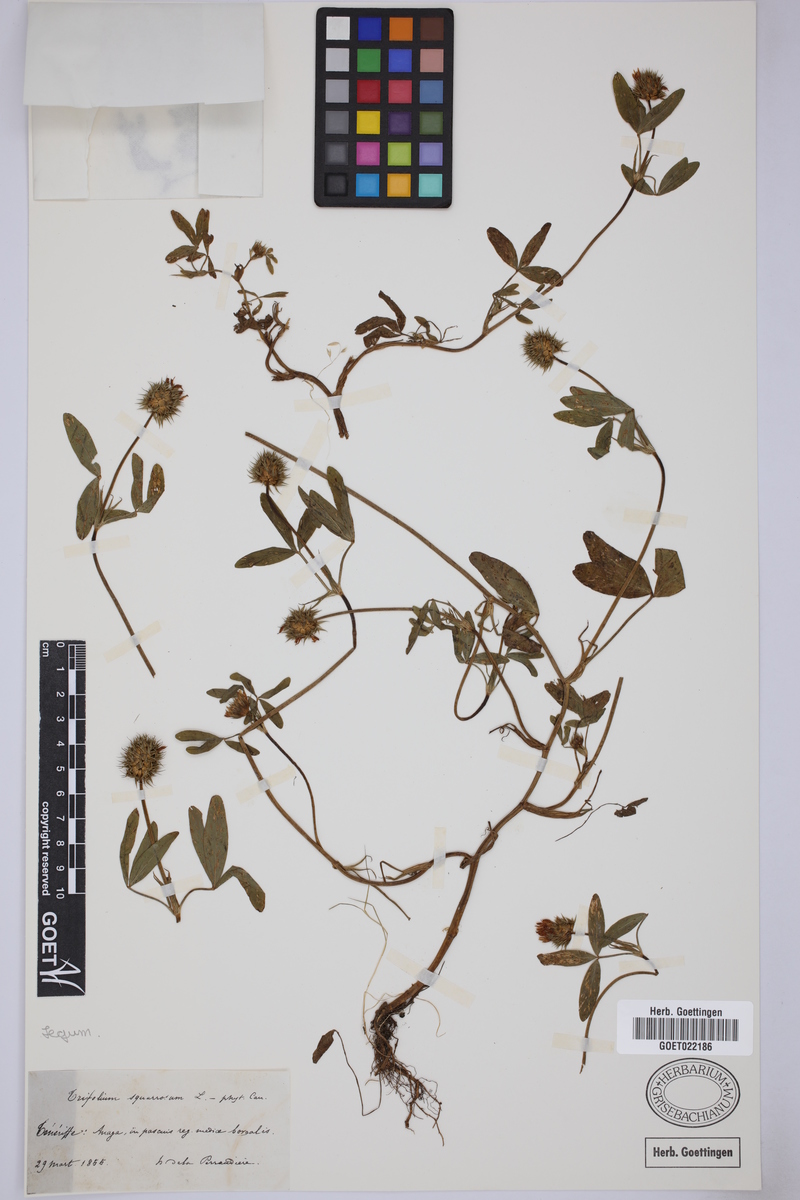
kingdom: Plantae
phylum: Tracheophyta
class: Magnoliopsida
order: Fabales
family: Fabaceae
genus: Trifolium
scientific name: Trifolium squamosum
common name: Sea clover
